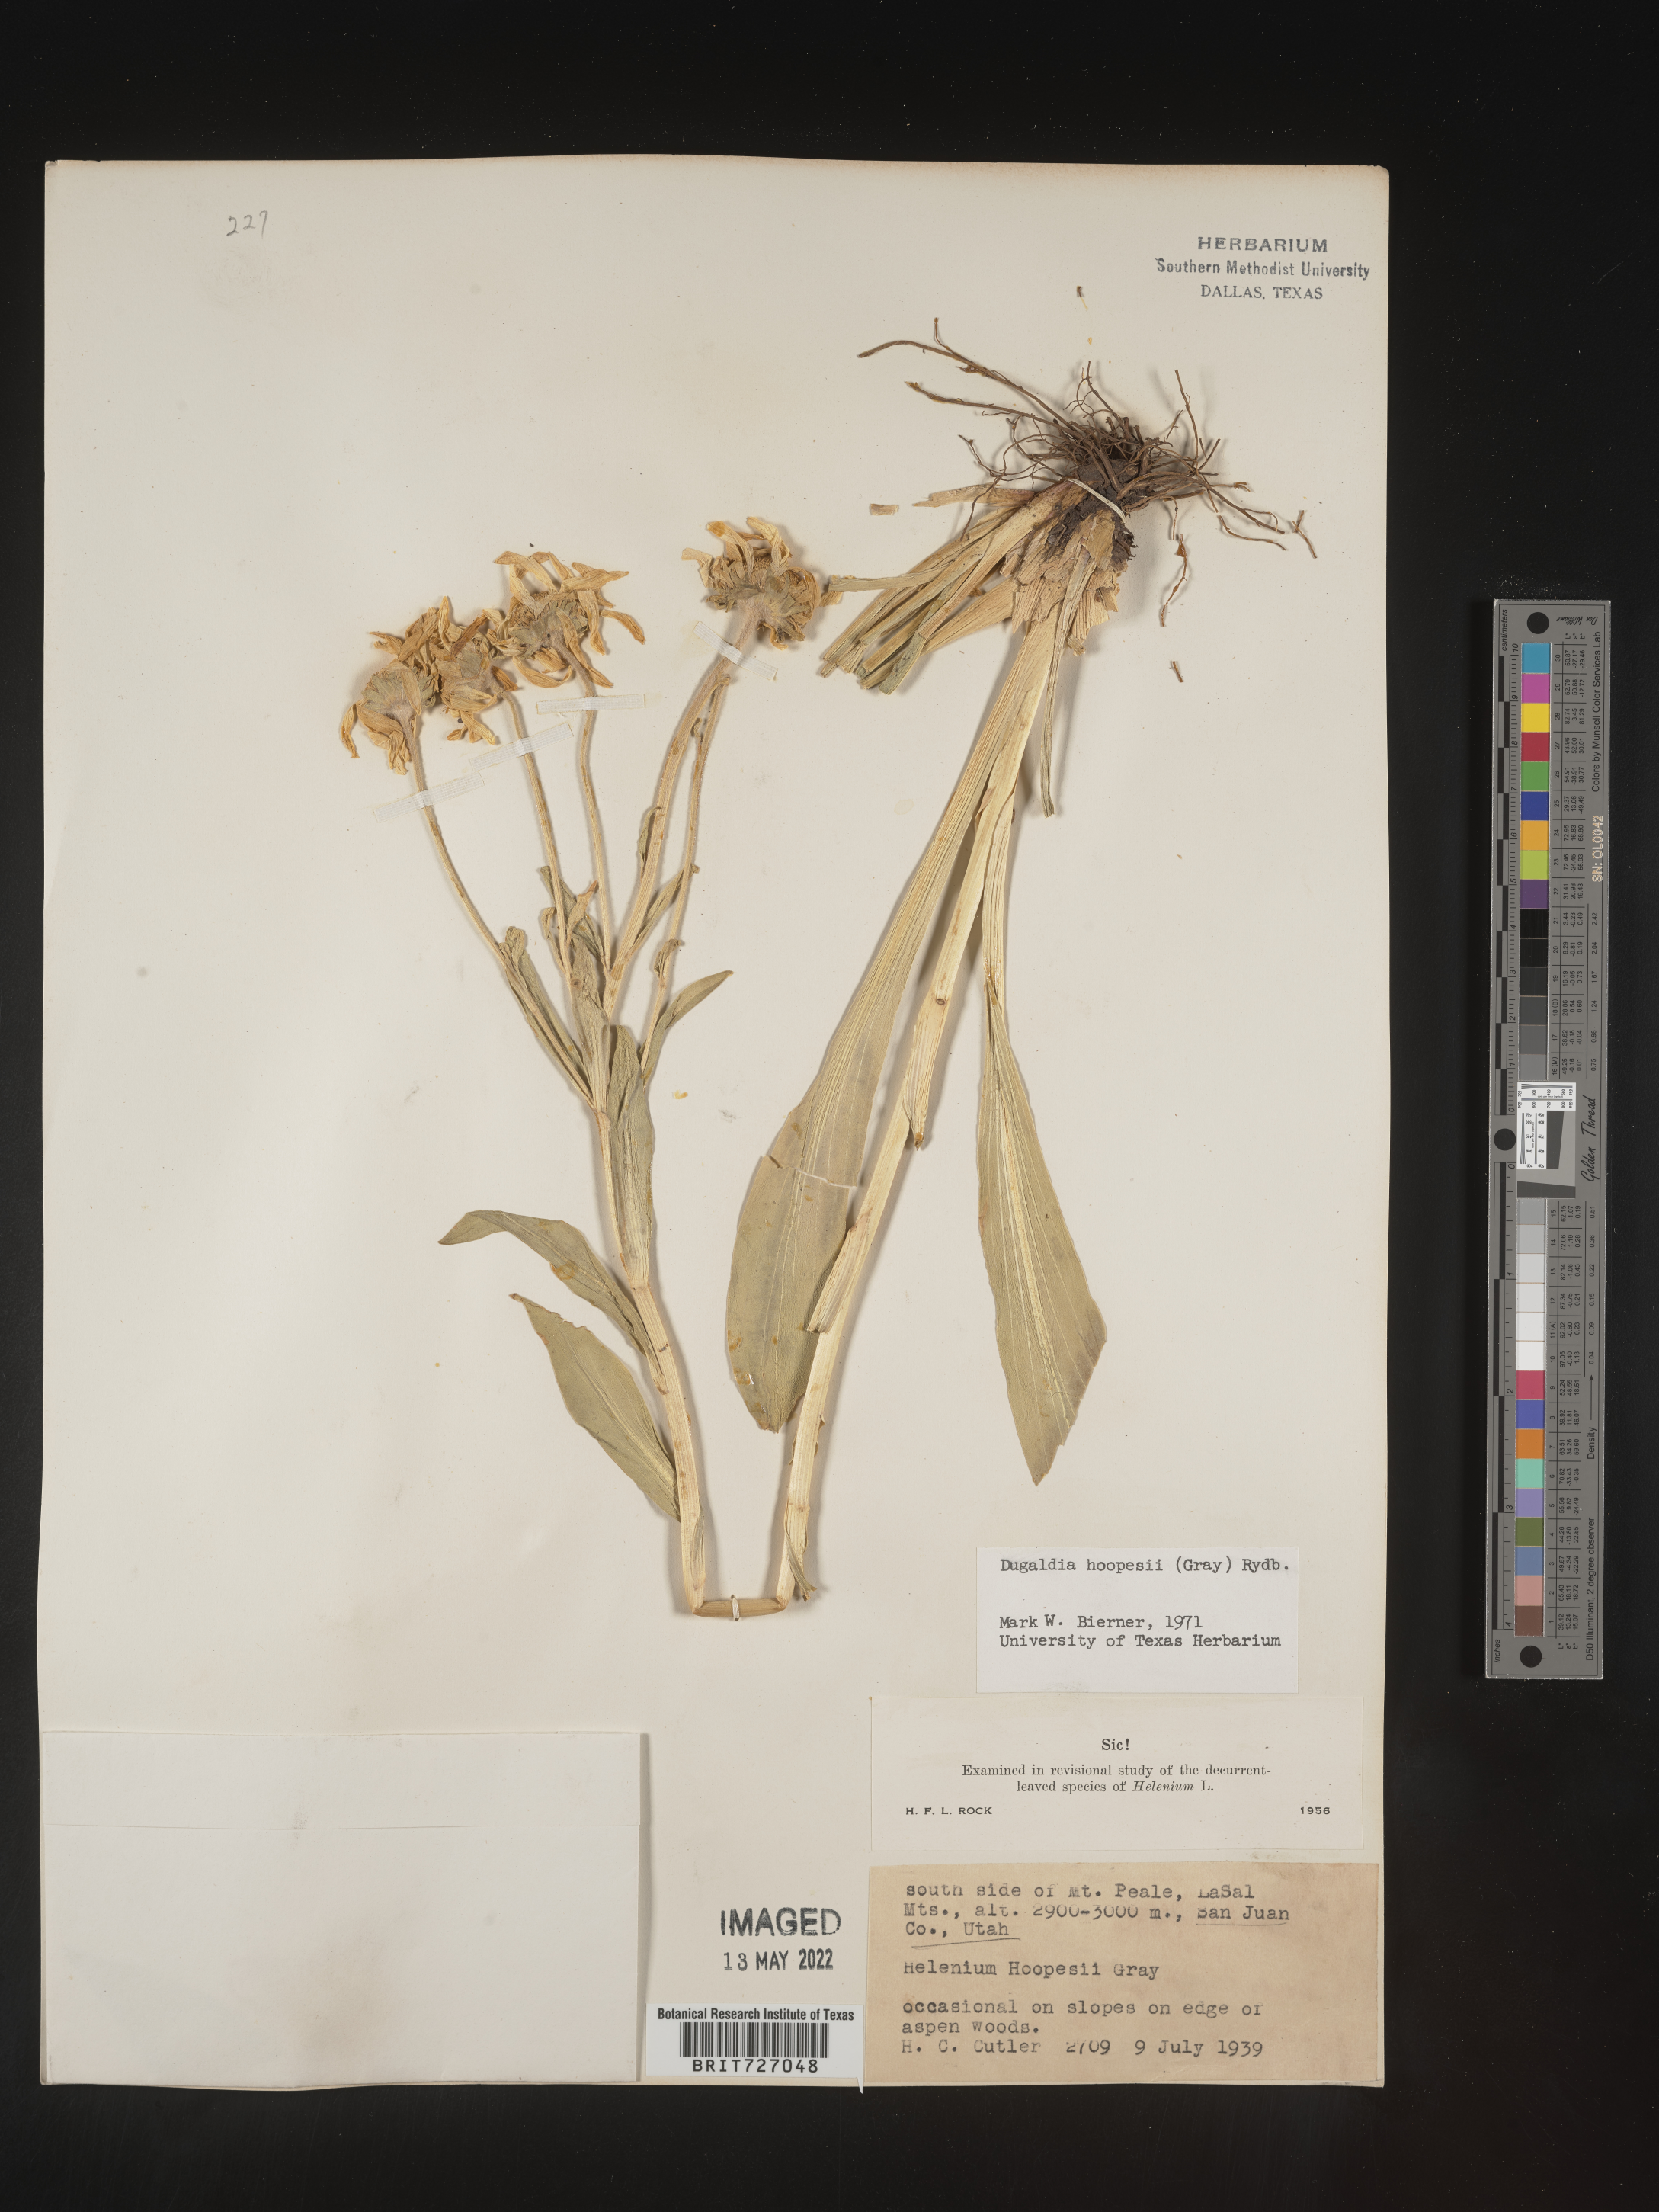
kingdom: Plantae
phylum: Tracheophyta
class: Magnoliopsida
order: Asterales
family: Asteraceae
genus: Hymenoxys
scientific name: Hymenoxys hoopesii
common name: Orange-sneezeweed
